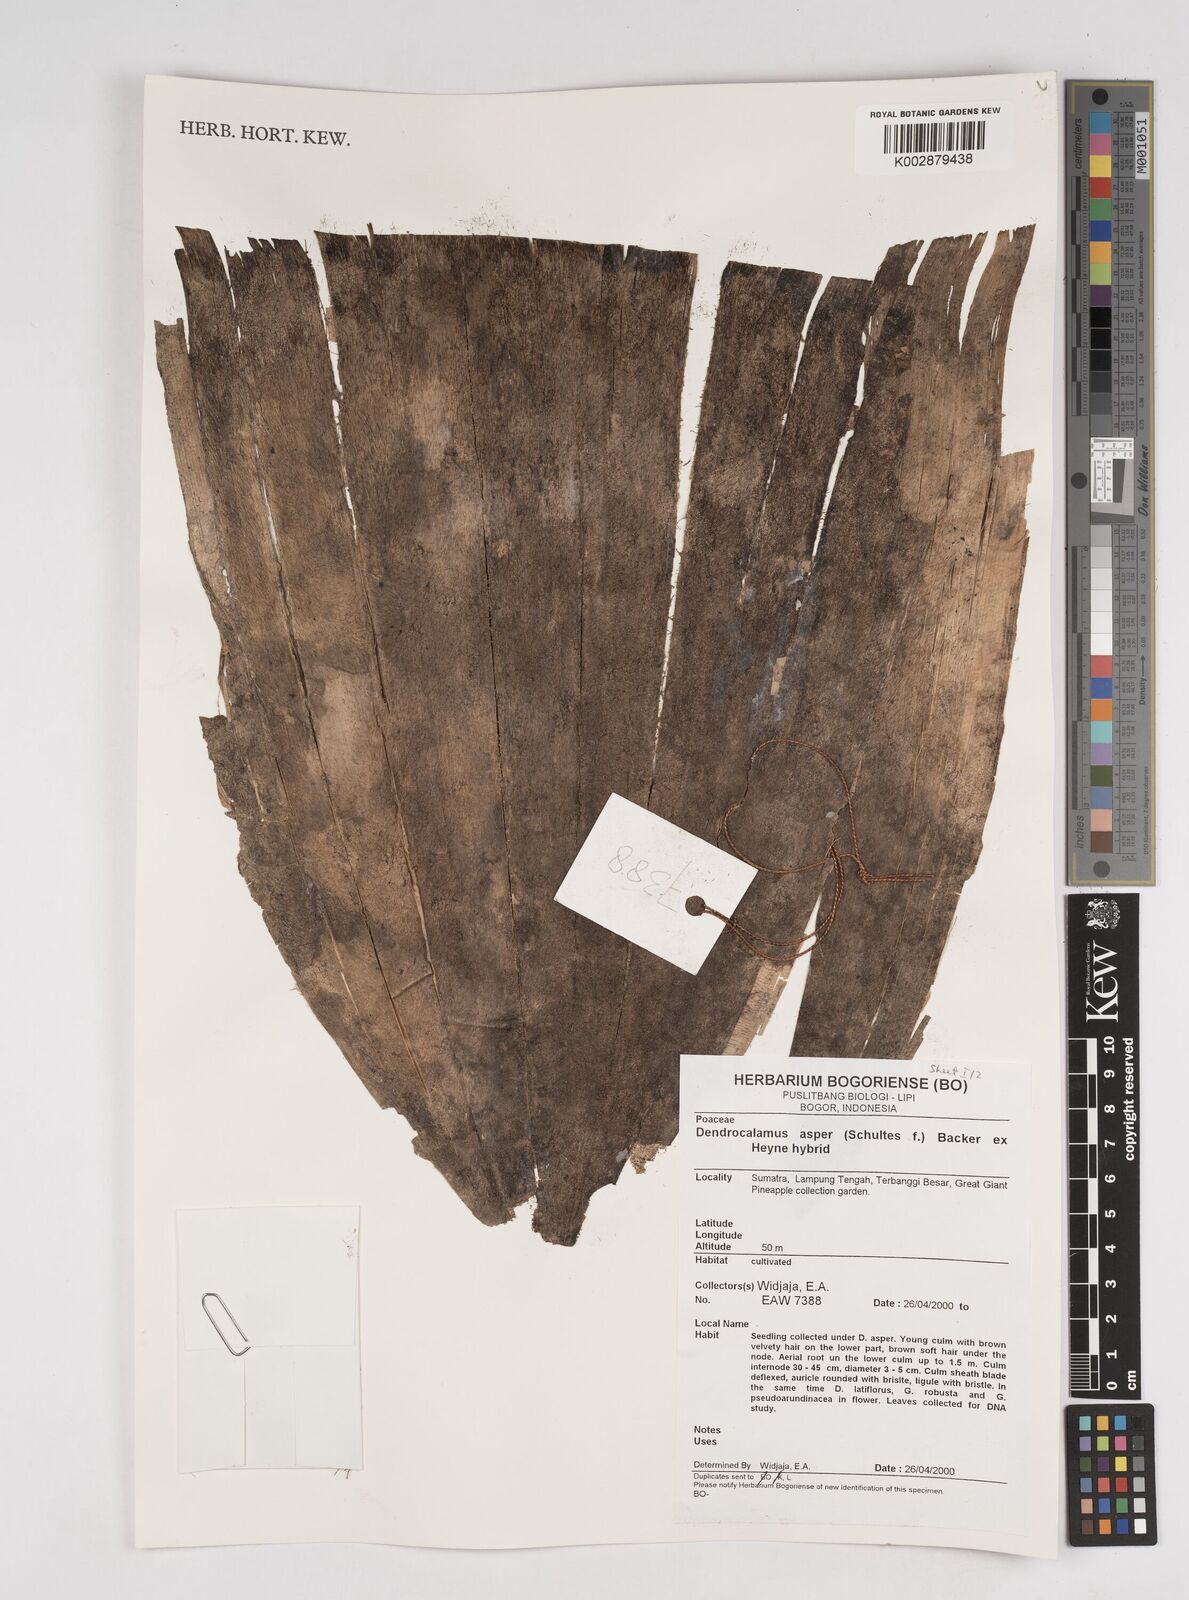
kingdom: Plantae
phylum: Tracheophyta
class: Liliopsida
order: Poales
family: Poaceae
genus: Dendrocalamus
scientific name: Dendrocalamus asper
